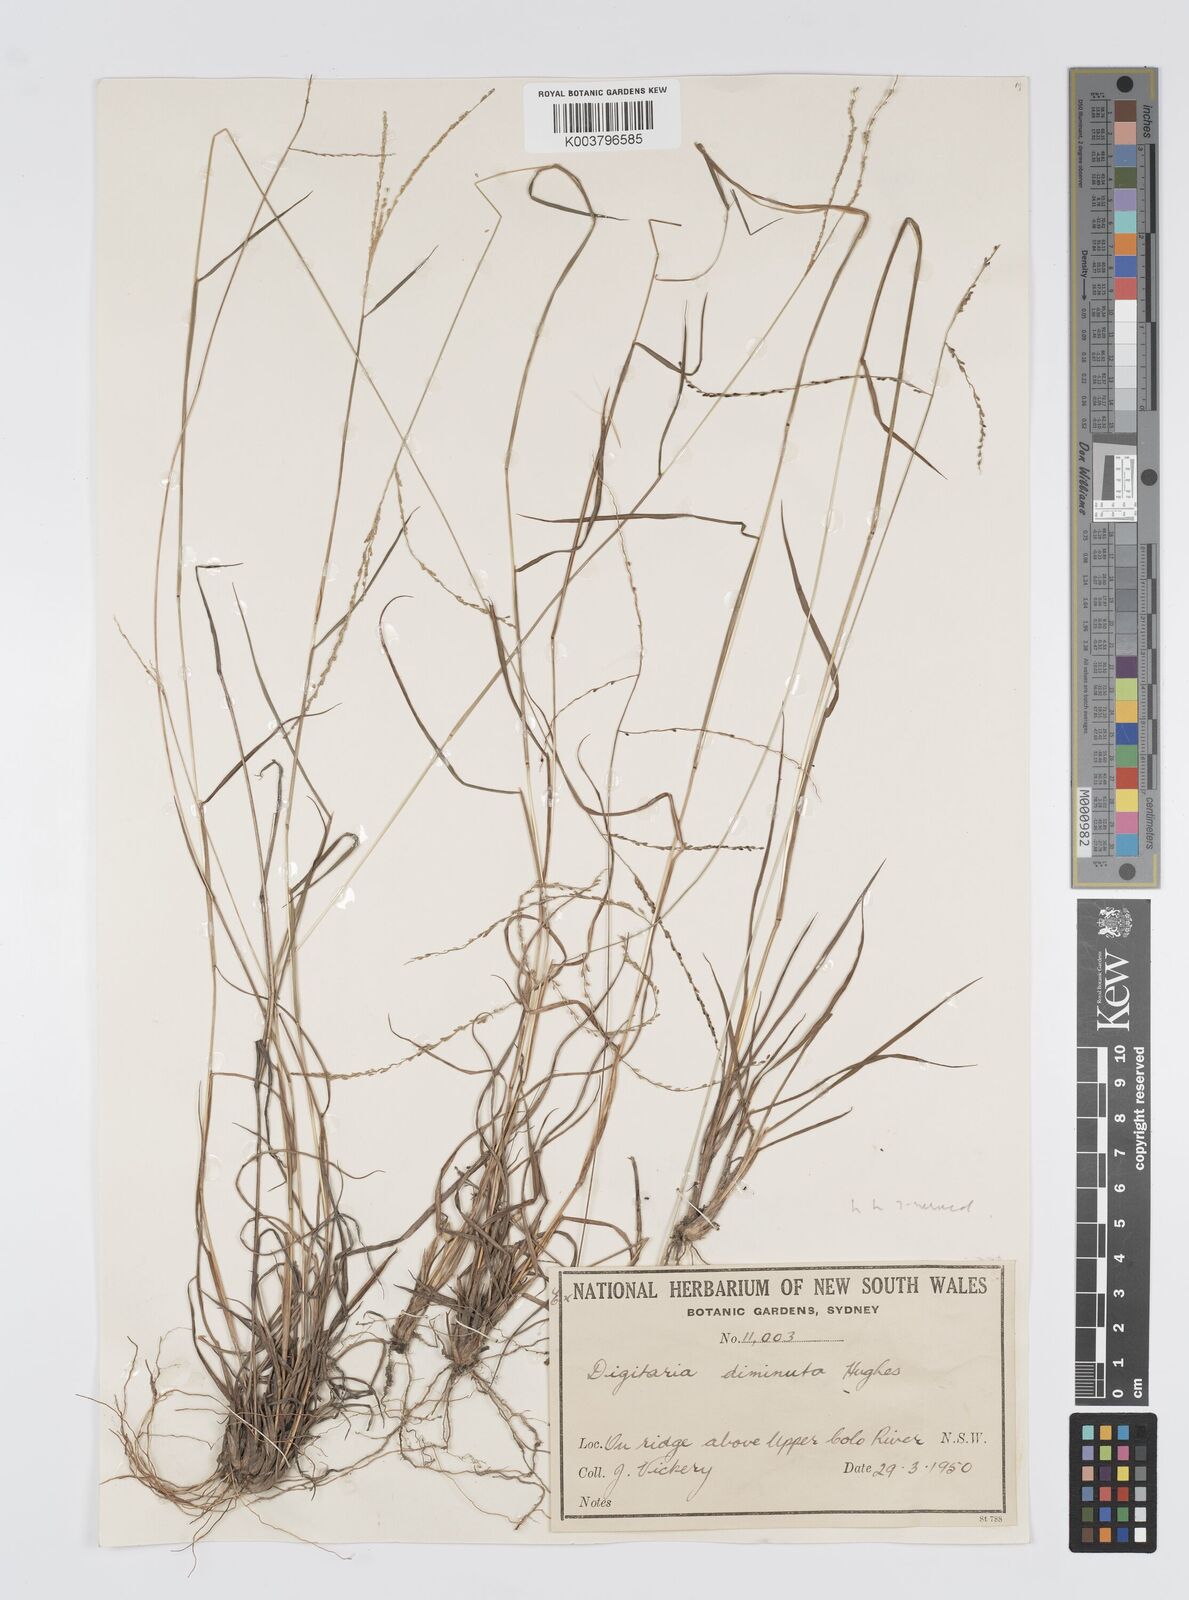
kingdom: Plantae
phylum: Tracheophyta
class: Liliopsida
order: Poales
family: Poaceae
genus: Digitaria
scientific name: Digitaria breviglumis
